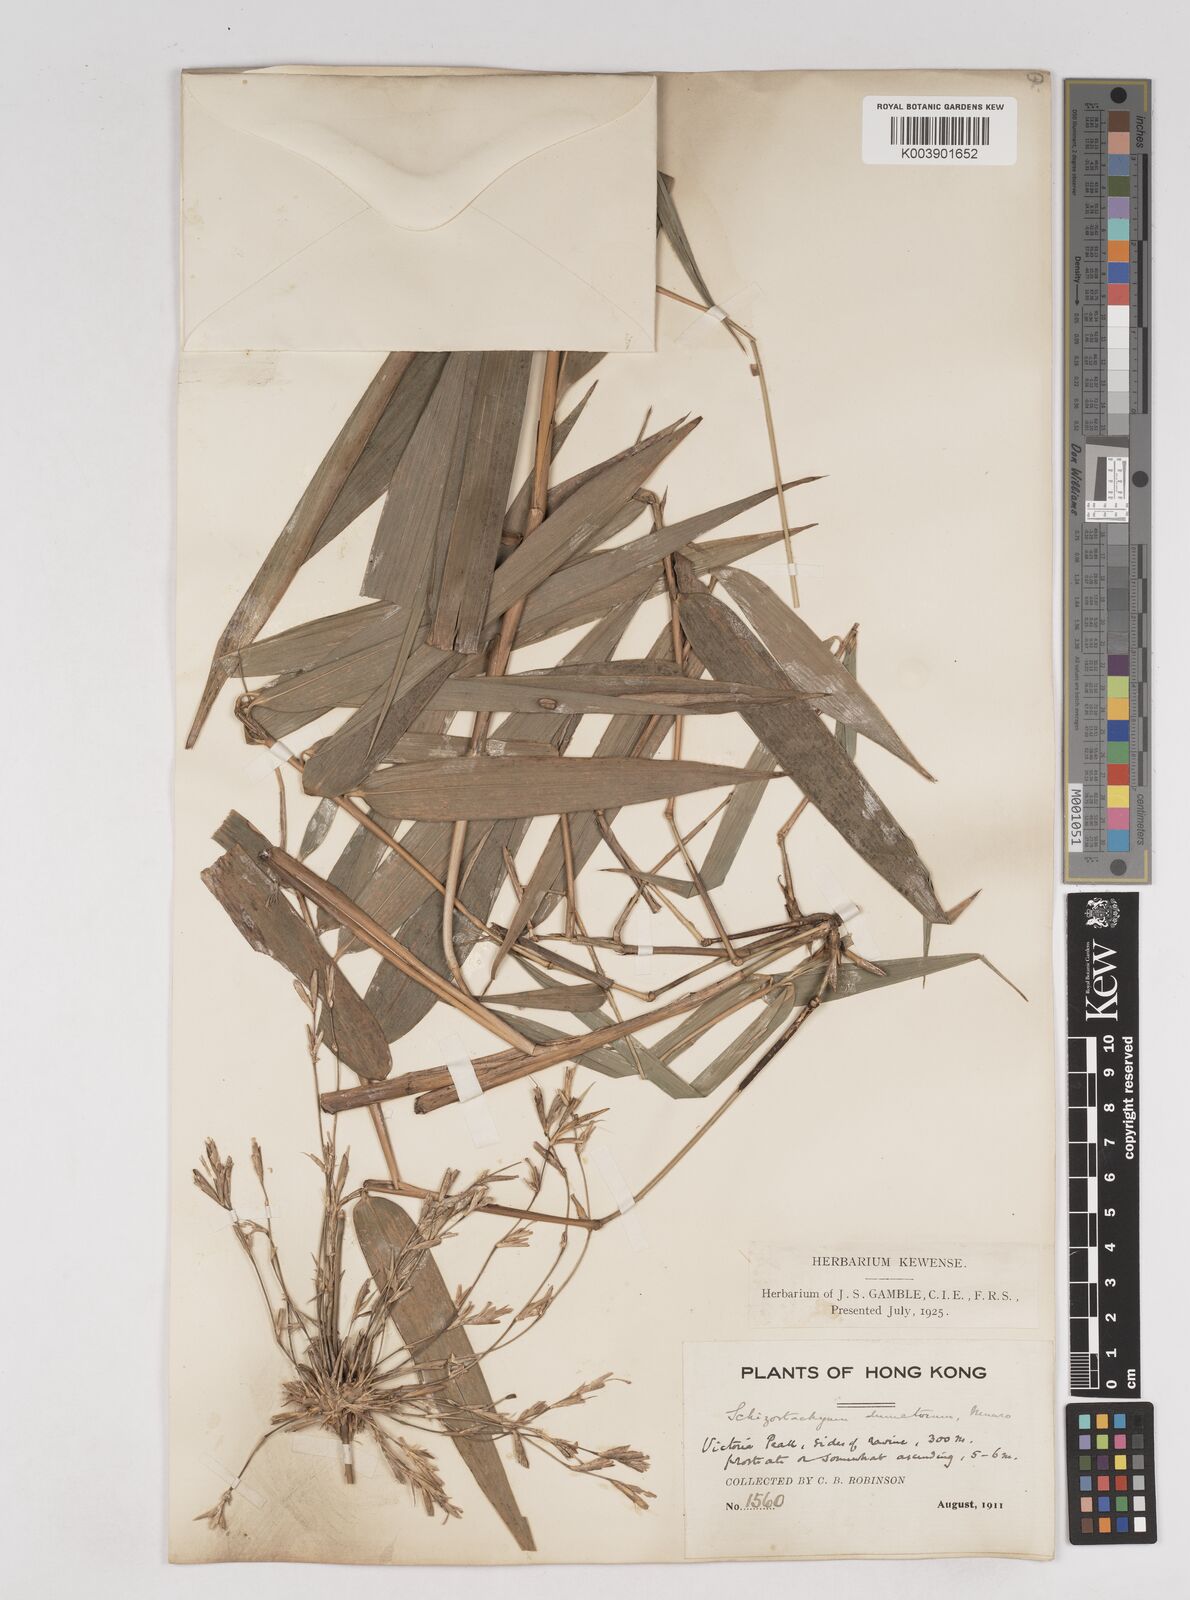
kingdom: Plantae
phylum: Tracheophyta
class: Liliopsida
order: Poales
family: Poaceae
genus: Schizostachyum
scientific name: Schizostachyum dumetorum
